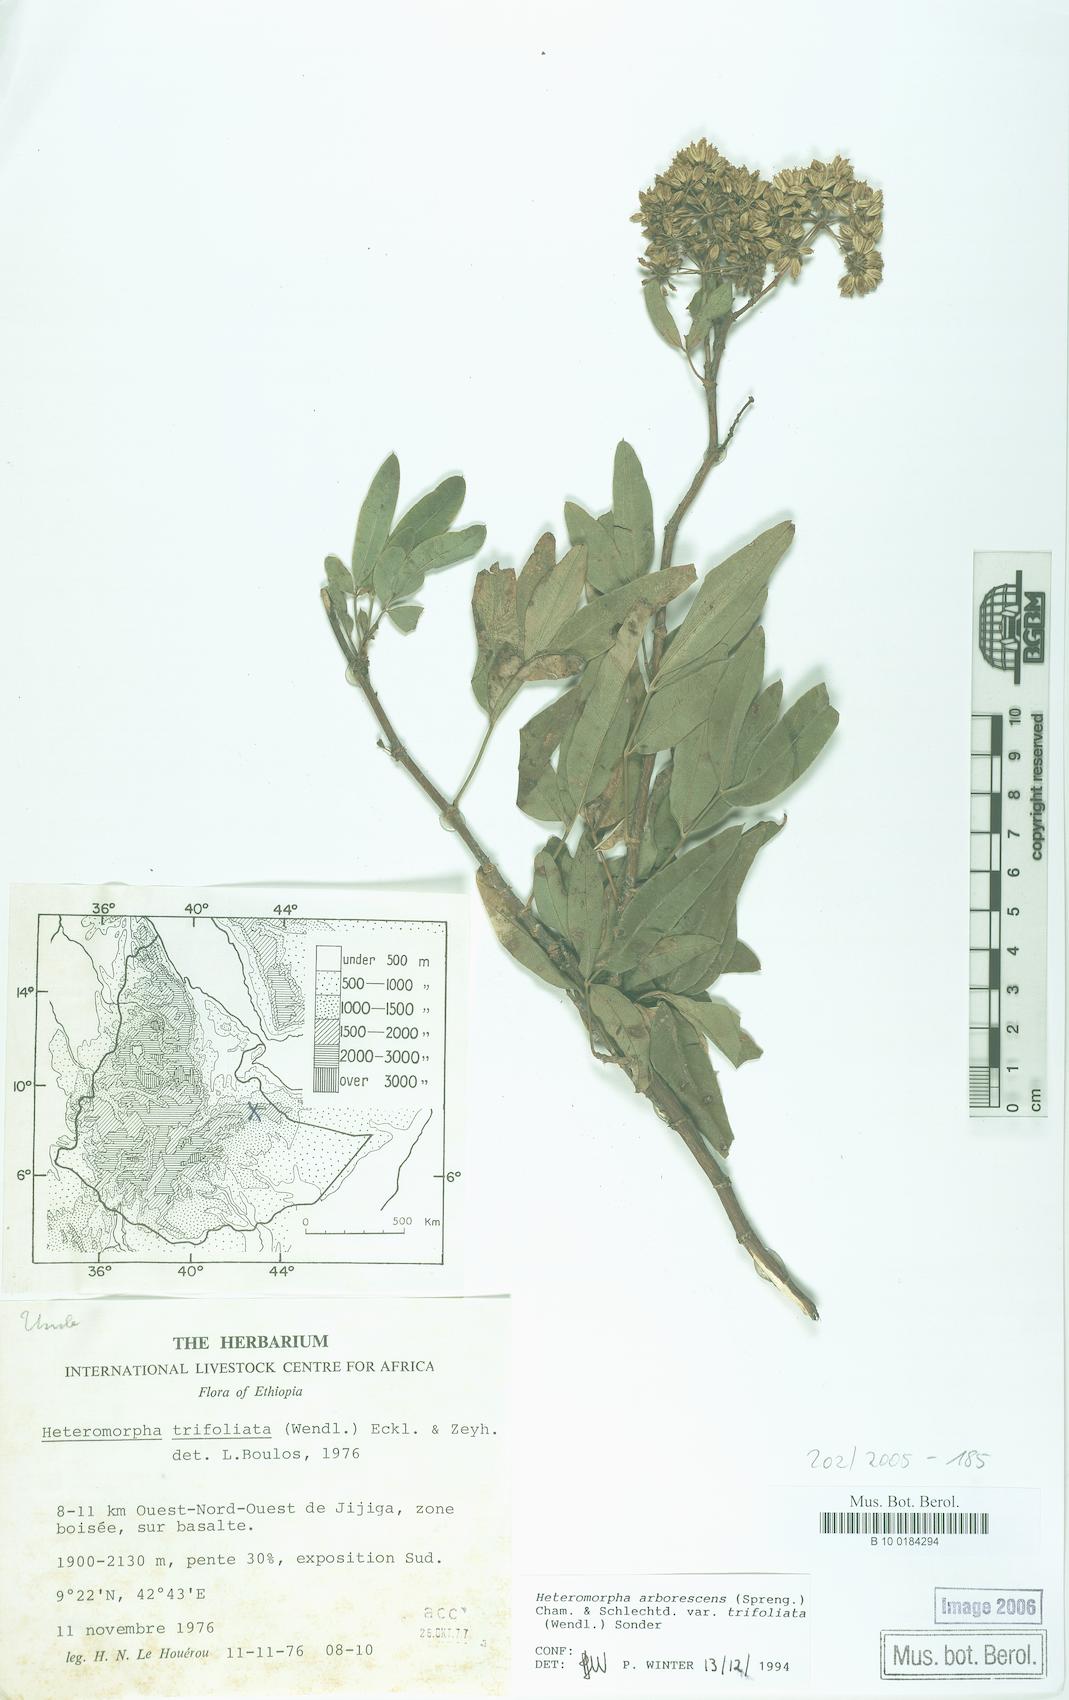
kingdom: Plantae
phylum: Tracheophyta
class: Magnoliopsida
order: Apiales
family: Apiaceae
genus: Heteromorpha
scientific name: Heteromorpha arborescens
